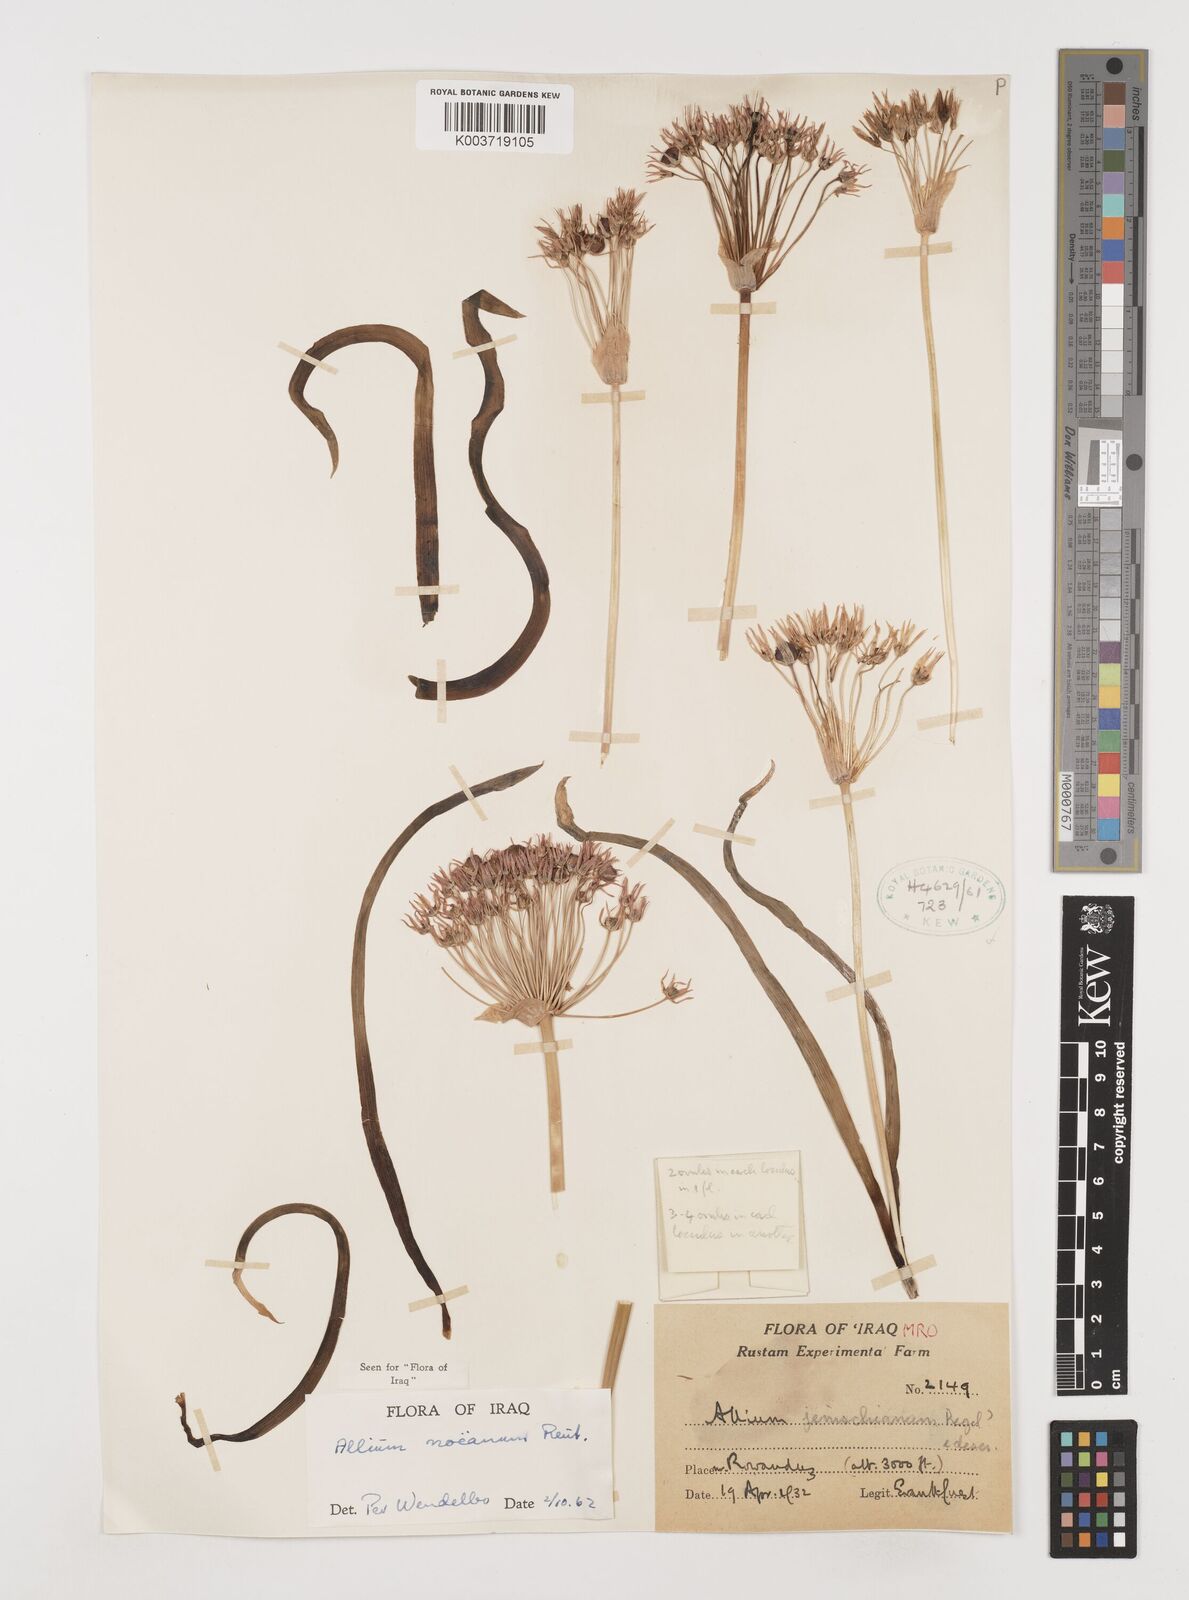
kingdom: Plantae
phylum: Tracheophyta
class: Liliopsida
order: Asparagales
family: Amaryllidaceae
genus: Allium
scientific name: Allium noeanum
